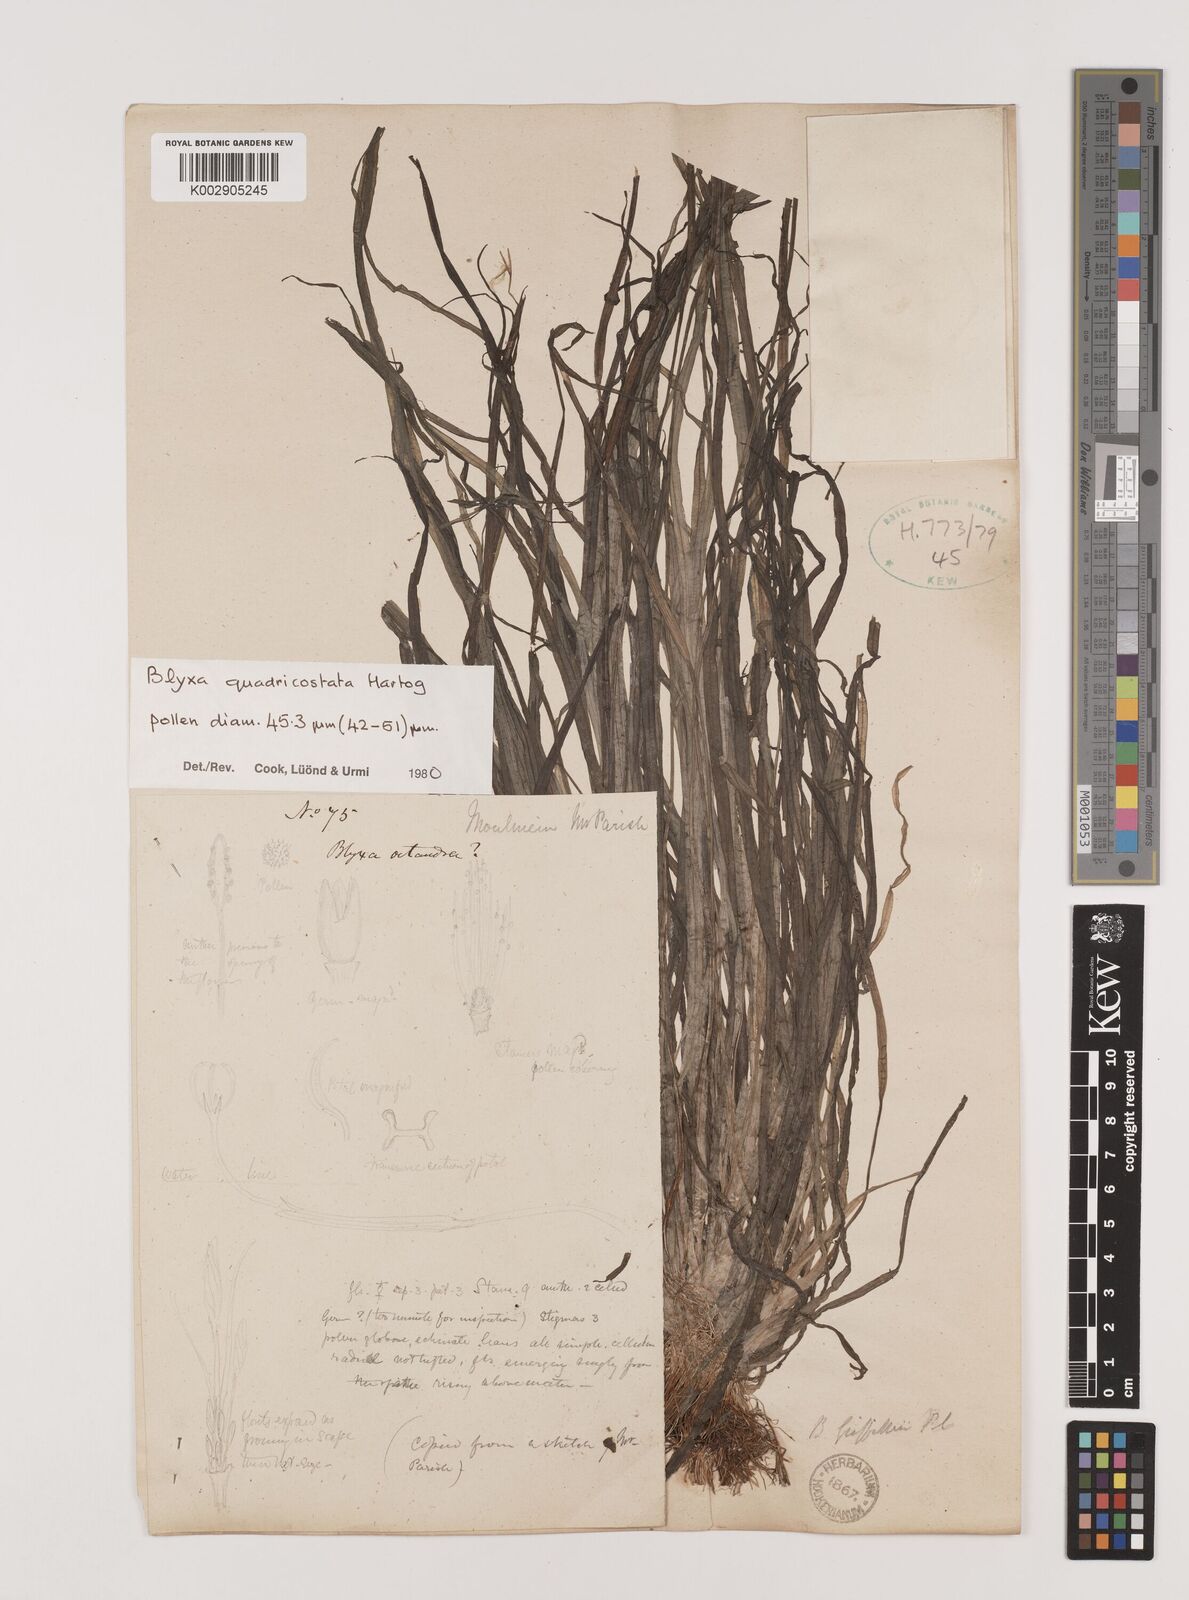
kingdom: Plantae
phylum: Tracheophyta
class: Liliopsida
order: Alismatales
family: Hydrocharitaceae
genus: Blyxa
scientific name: Blyxa quadricostata
